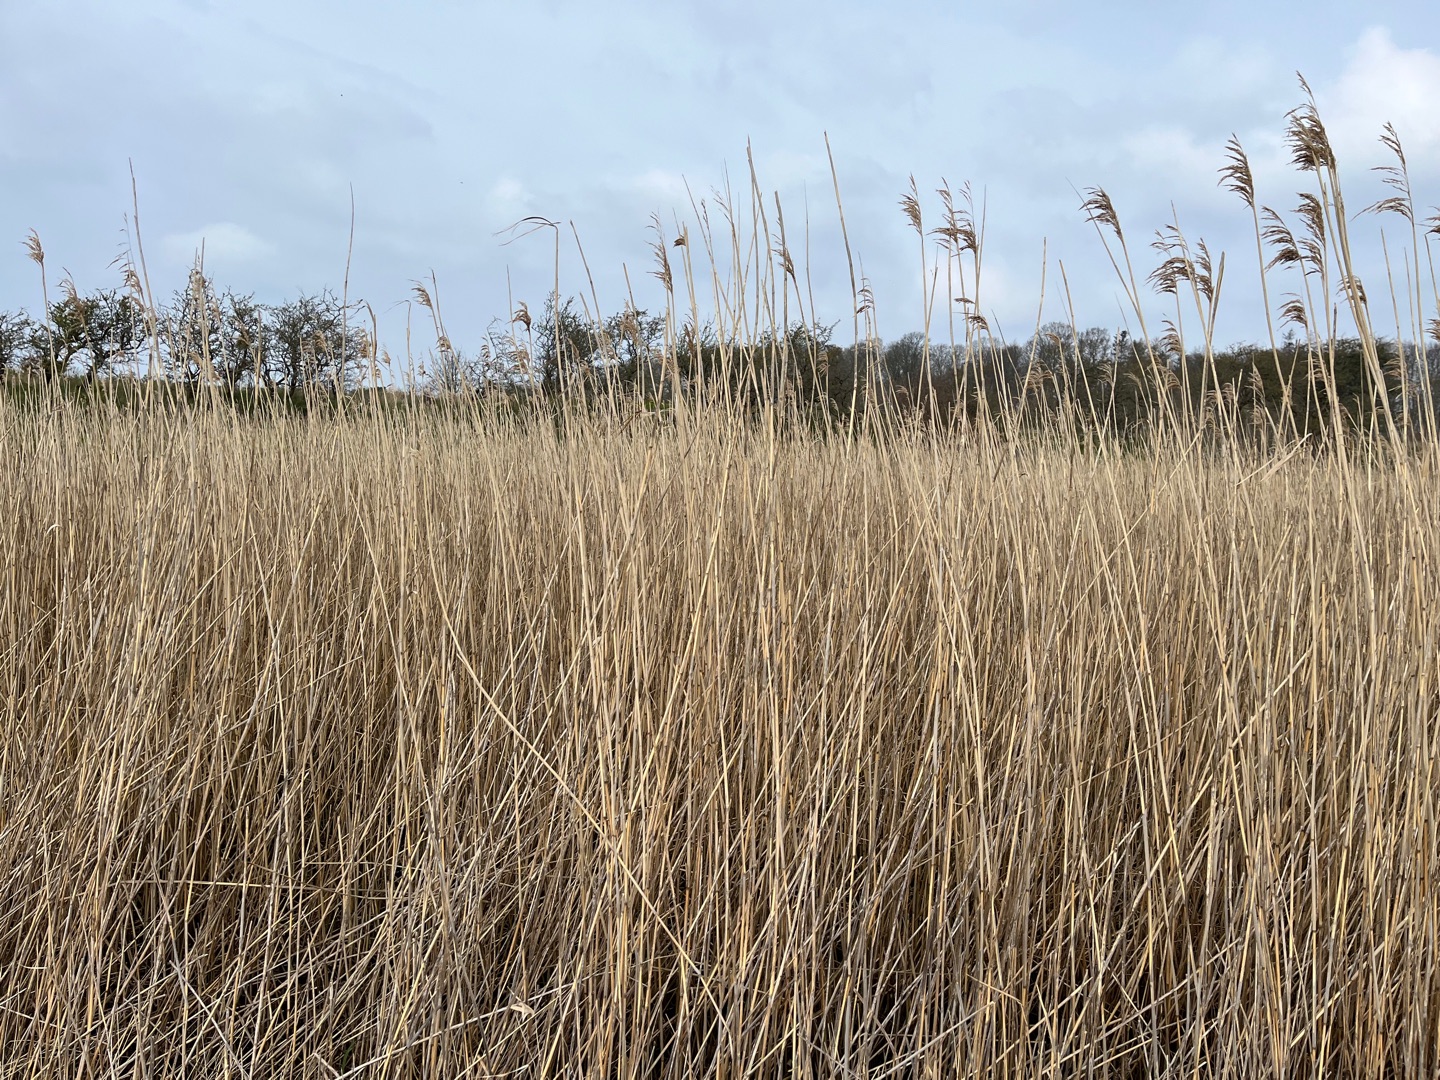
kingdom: Plantae
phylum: Tracheophyta
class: Liliopsida
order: Poales
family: Poaceae
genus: Phragmites
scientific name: Phragmites australis
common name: Tagrør
